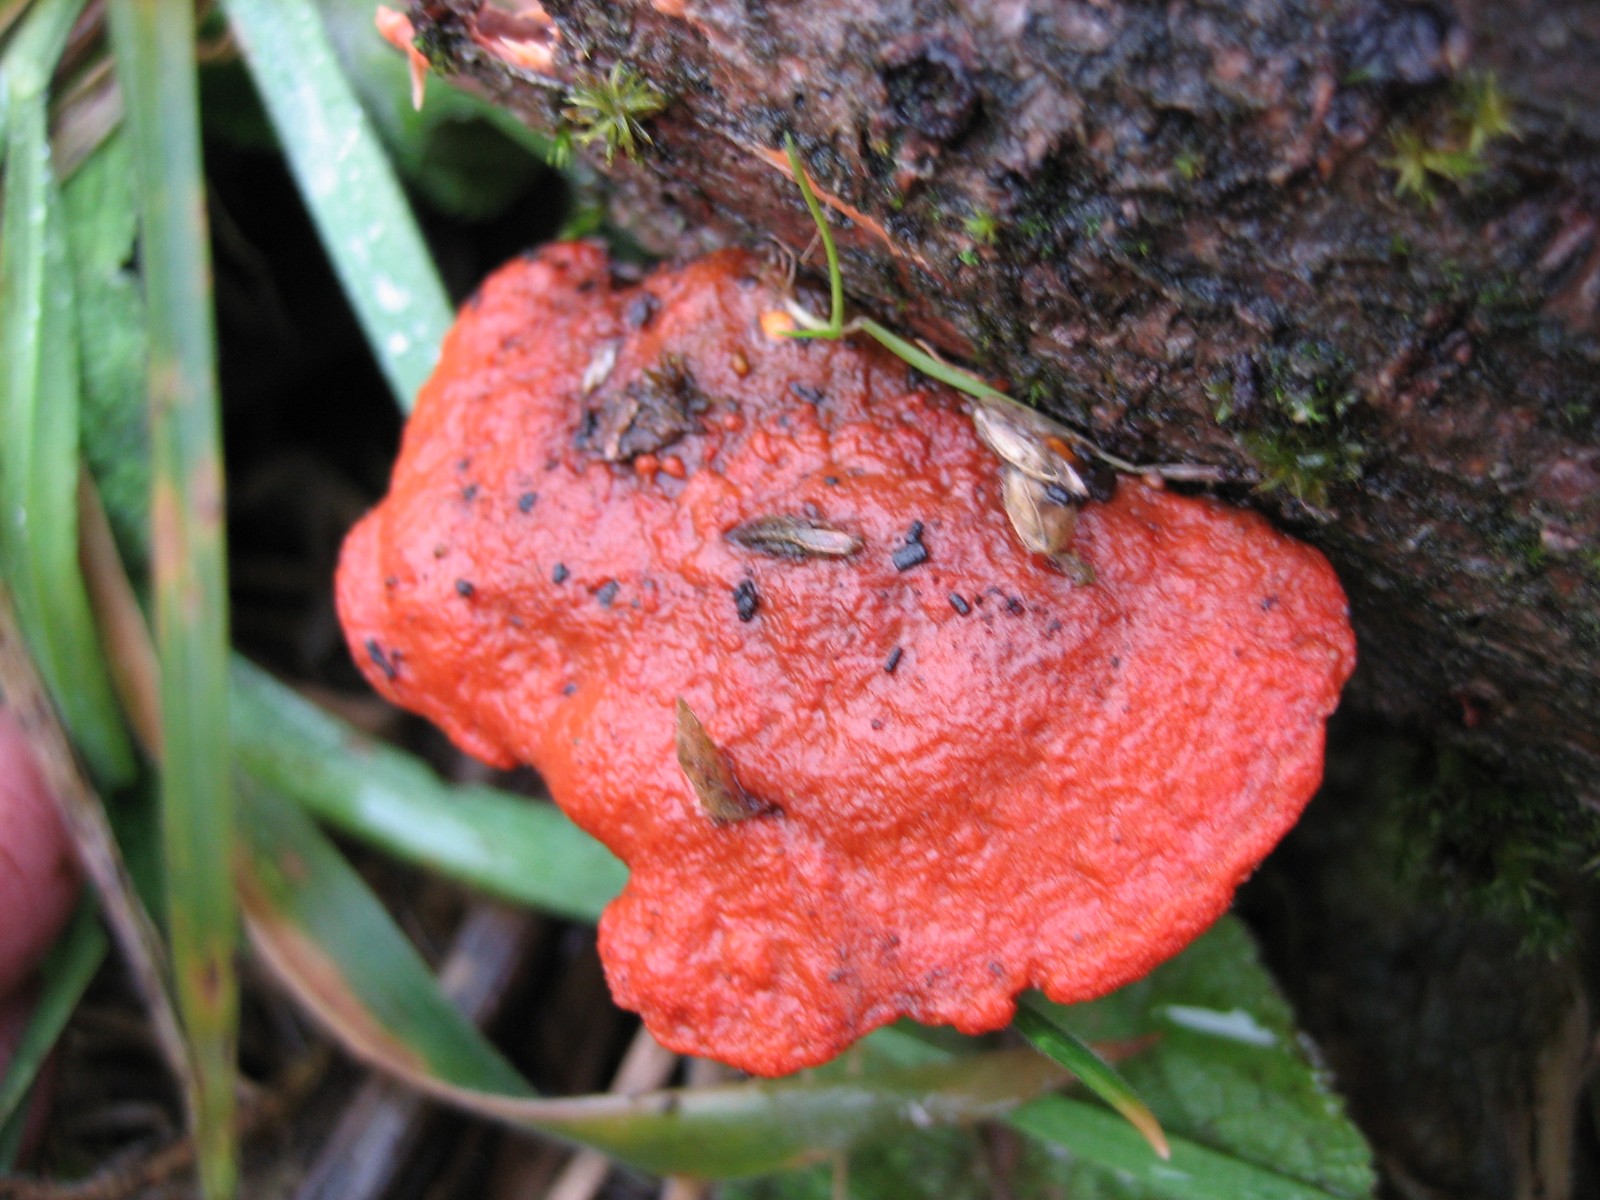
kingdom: Fungi
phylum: Basidiomycota
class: Agaricomycetes
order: Polyporales
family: Polyporaceae
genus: Trametes
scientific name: Trametes cinnabarina
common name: cinnoberporesvamp
